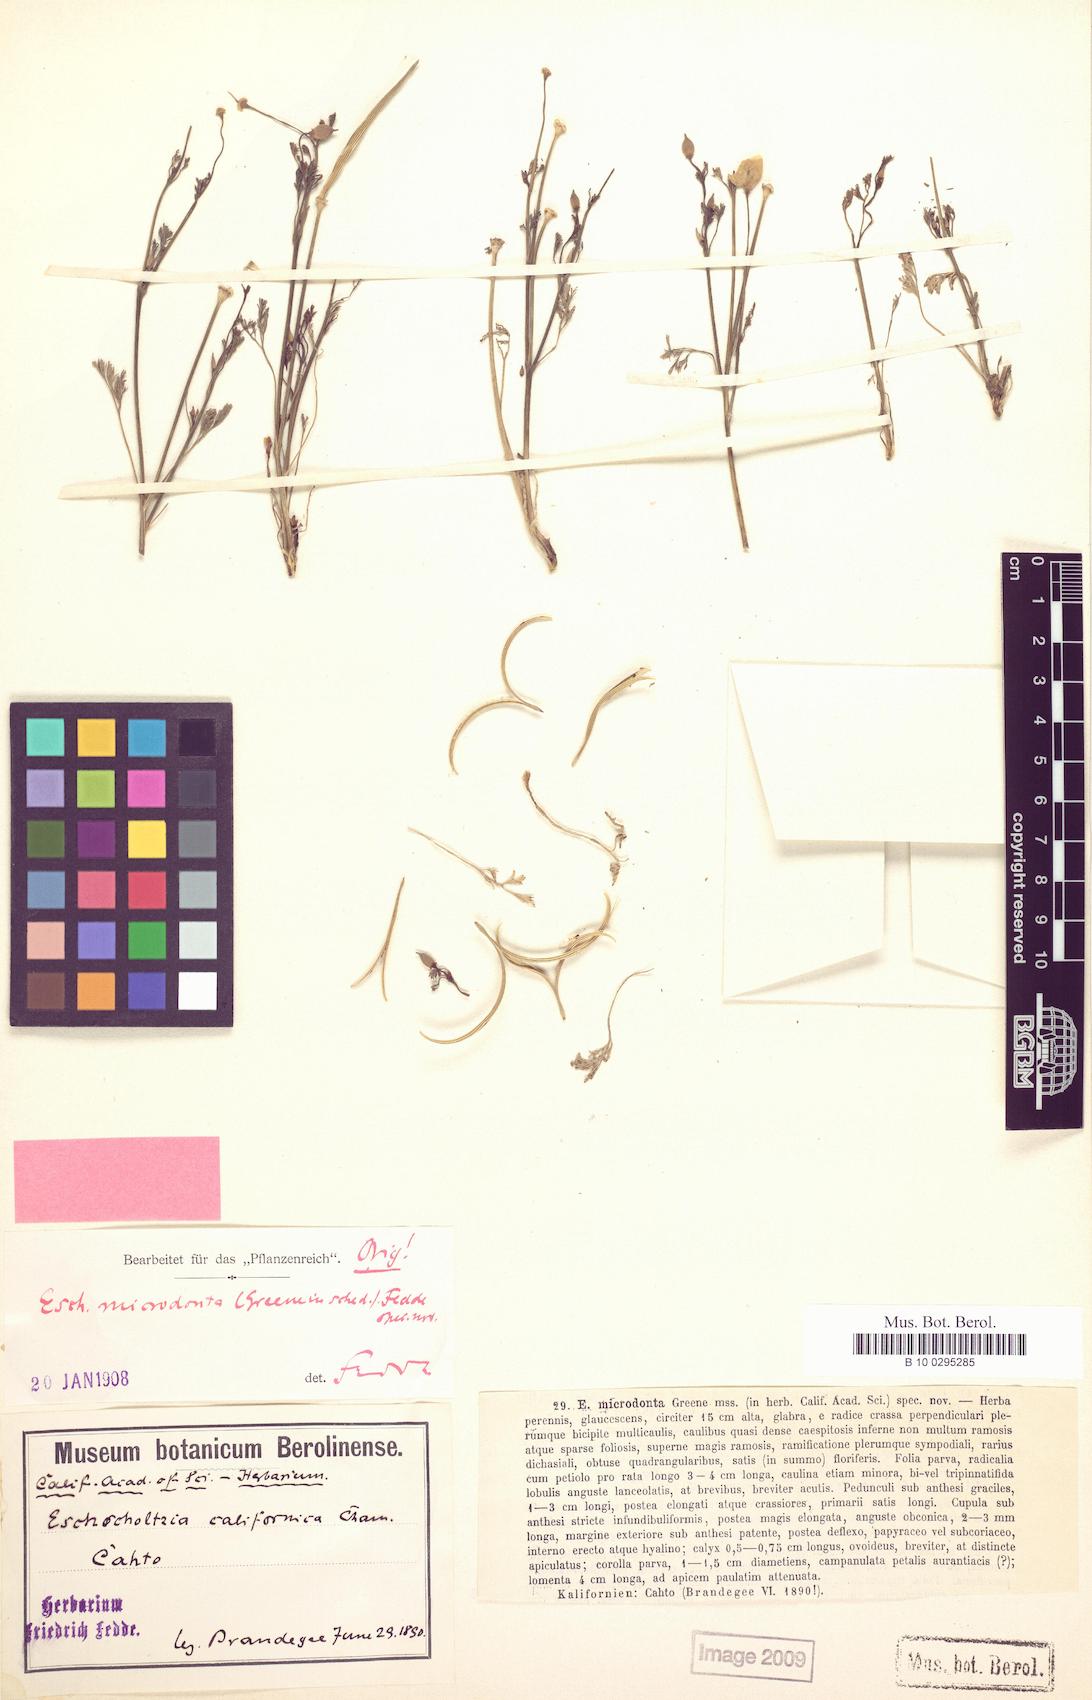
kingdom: Plantae
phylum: Tracheophyta
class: Magnoliopsida
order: Ranunculales
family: Papaveraceae
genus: Eschscholzia
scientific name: Eschscholzia californica
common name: California poppy
